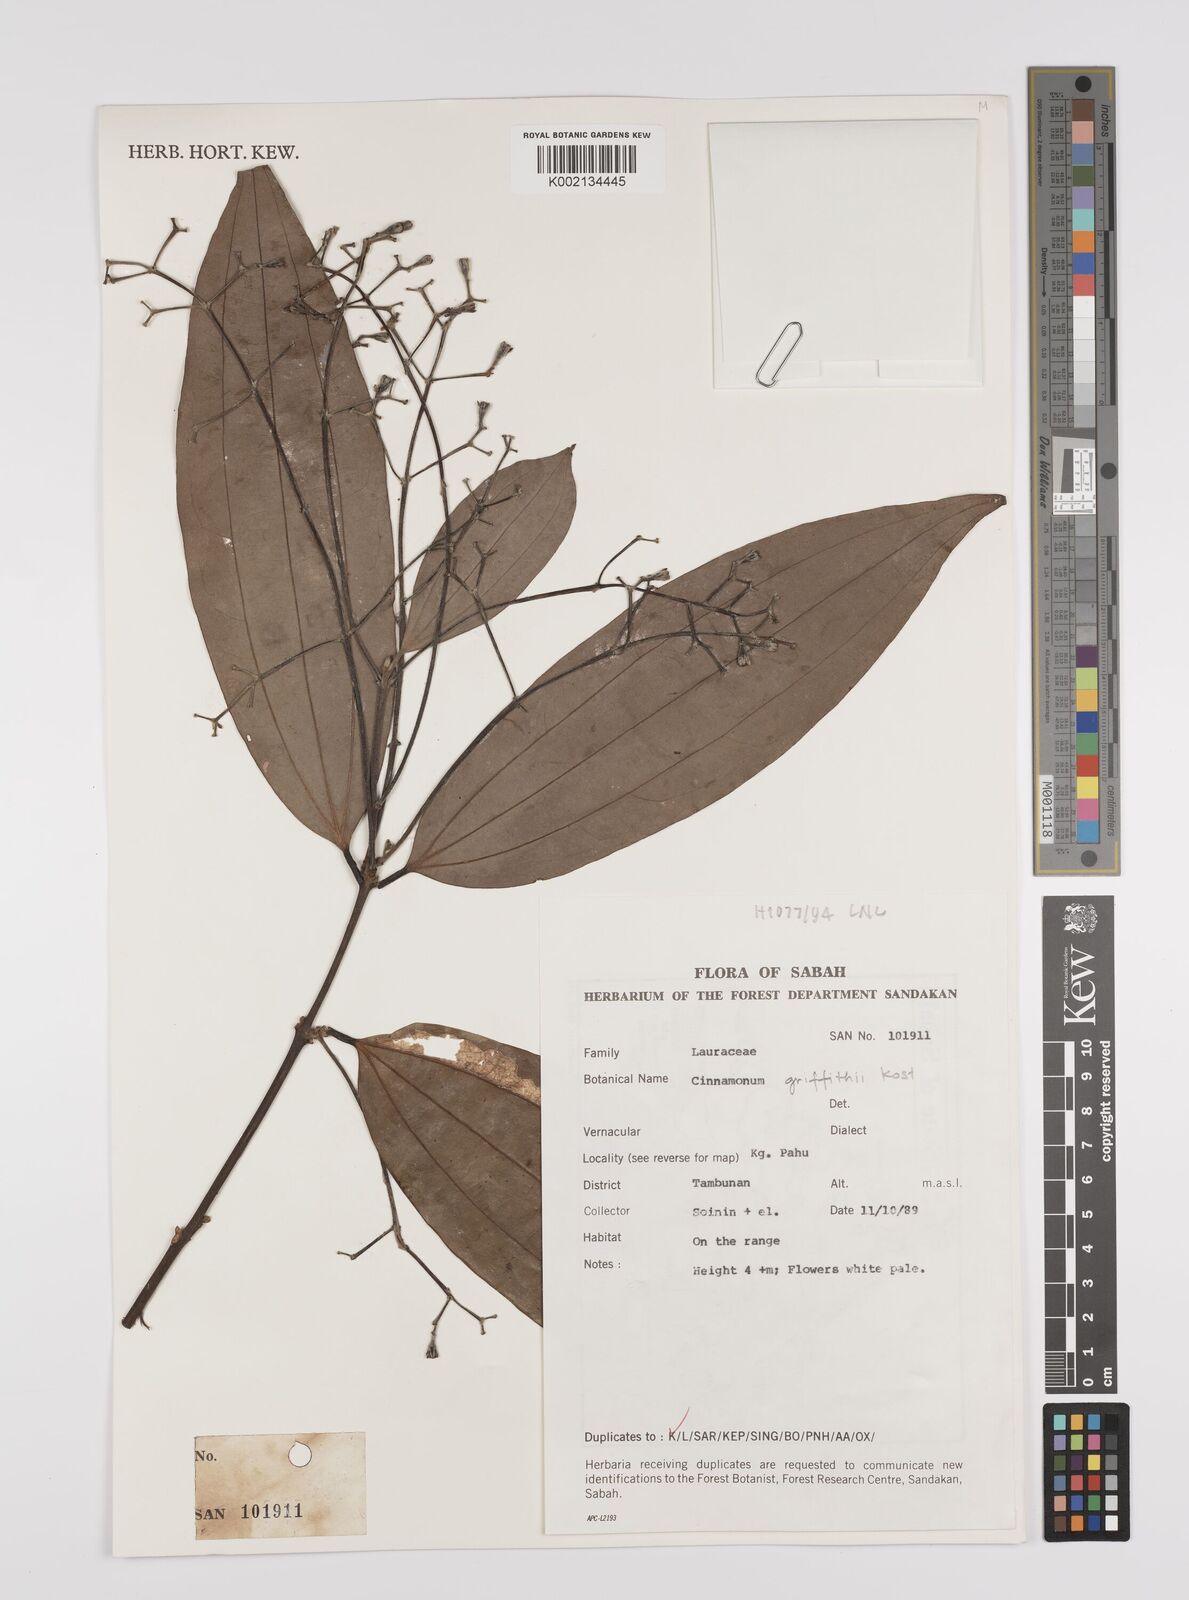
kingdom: Plantae
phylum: Tracheophyta
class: Magnoliopsida
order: Laurales
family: Lauraceae
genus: Cinnamomum
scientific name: Cinnamomum iners
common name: Wild cinnamon
